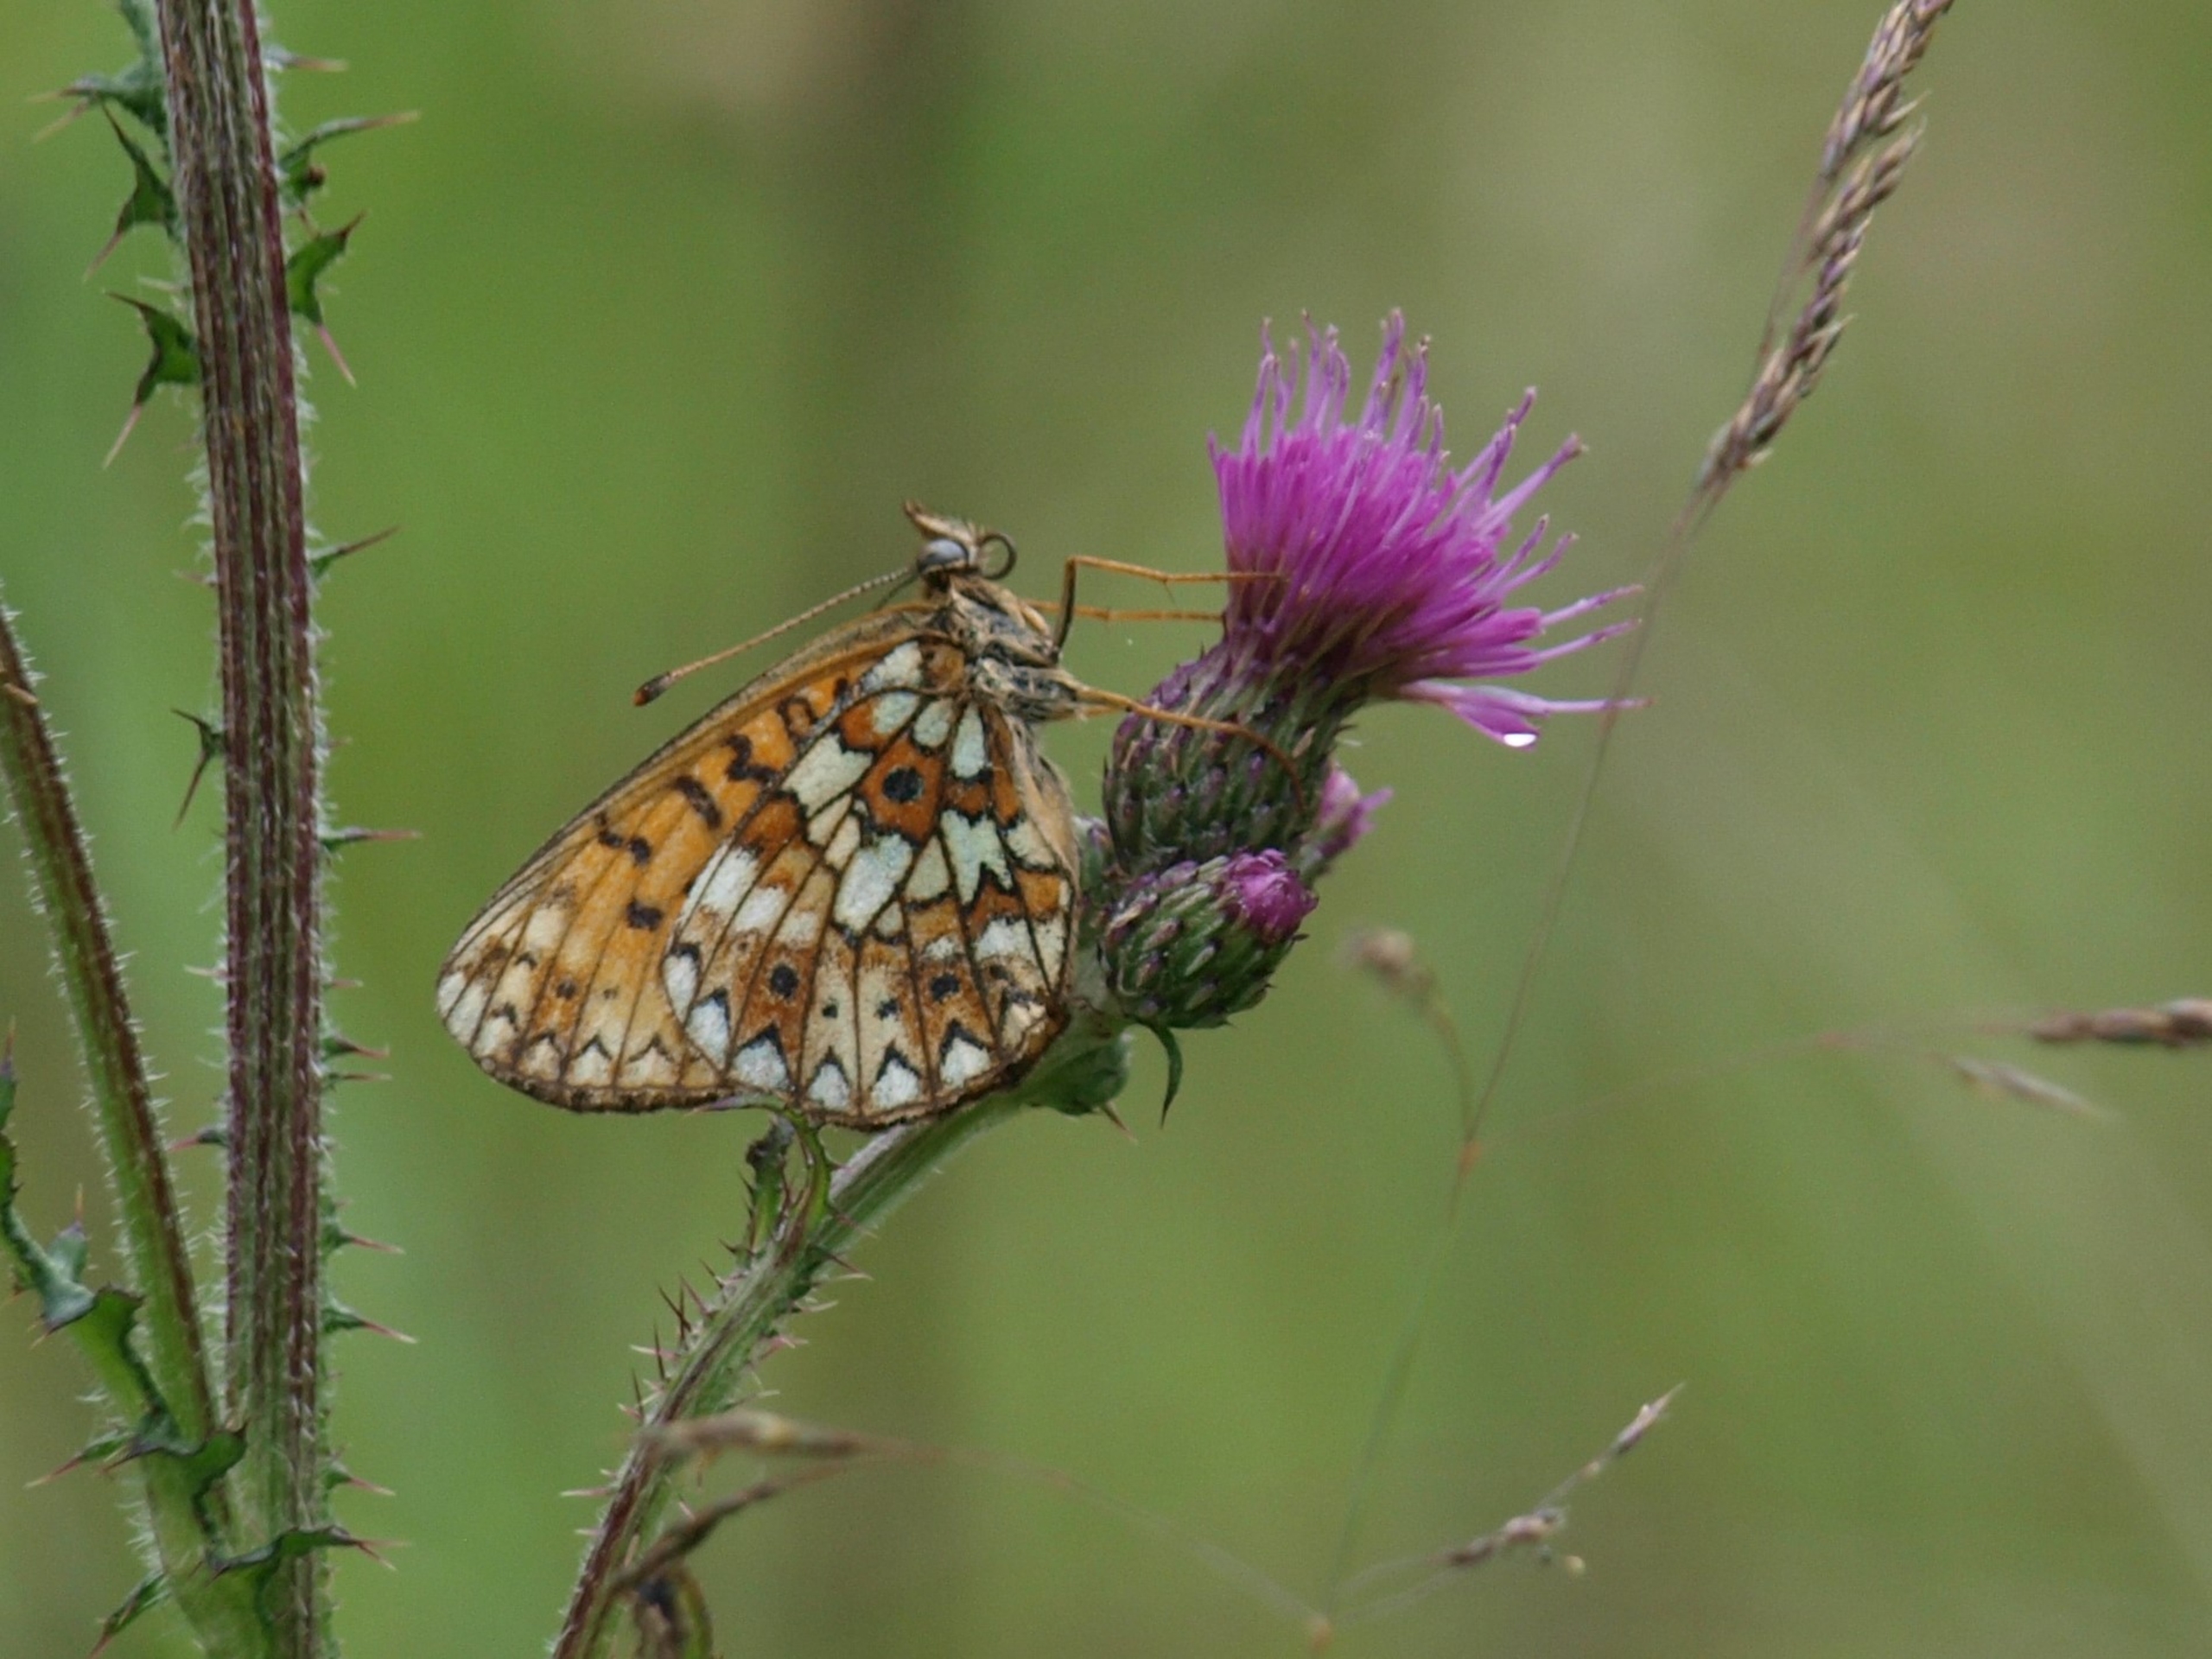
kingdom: Animalia
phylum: Arthropoda
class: Insecta
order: Lepidoptera
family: Nymphalidae
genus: Boloria
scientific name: Boloria selene
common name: Brunlig perlemorsommerfugl
